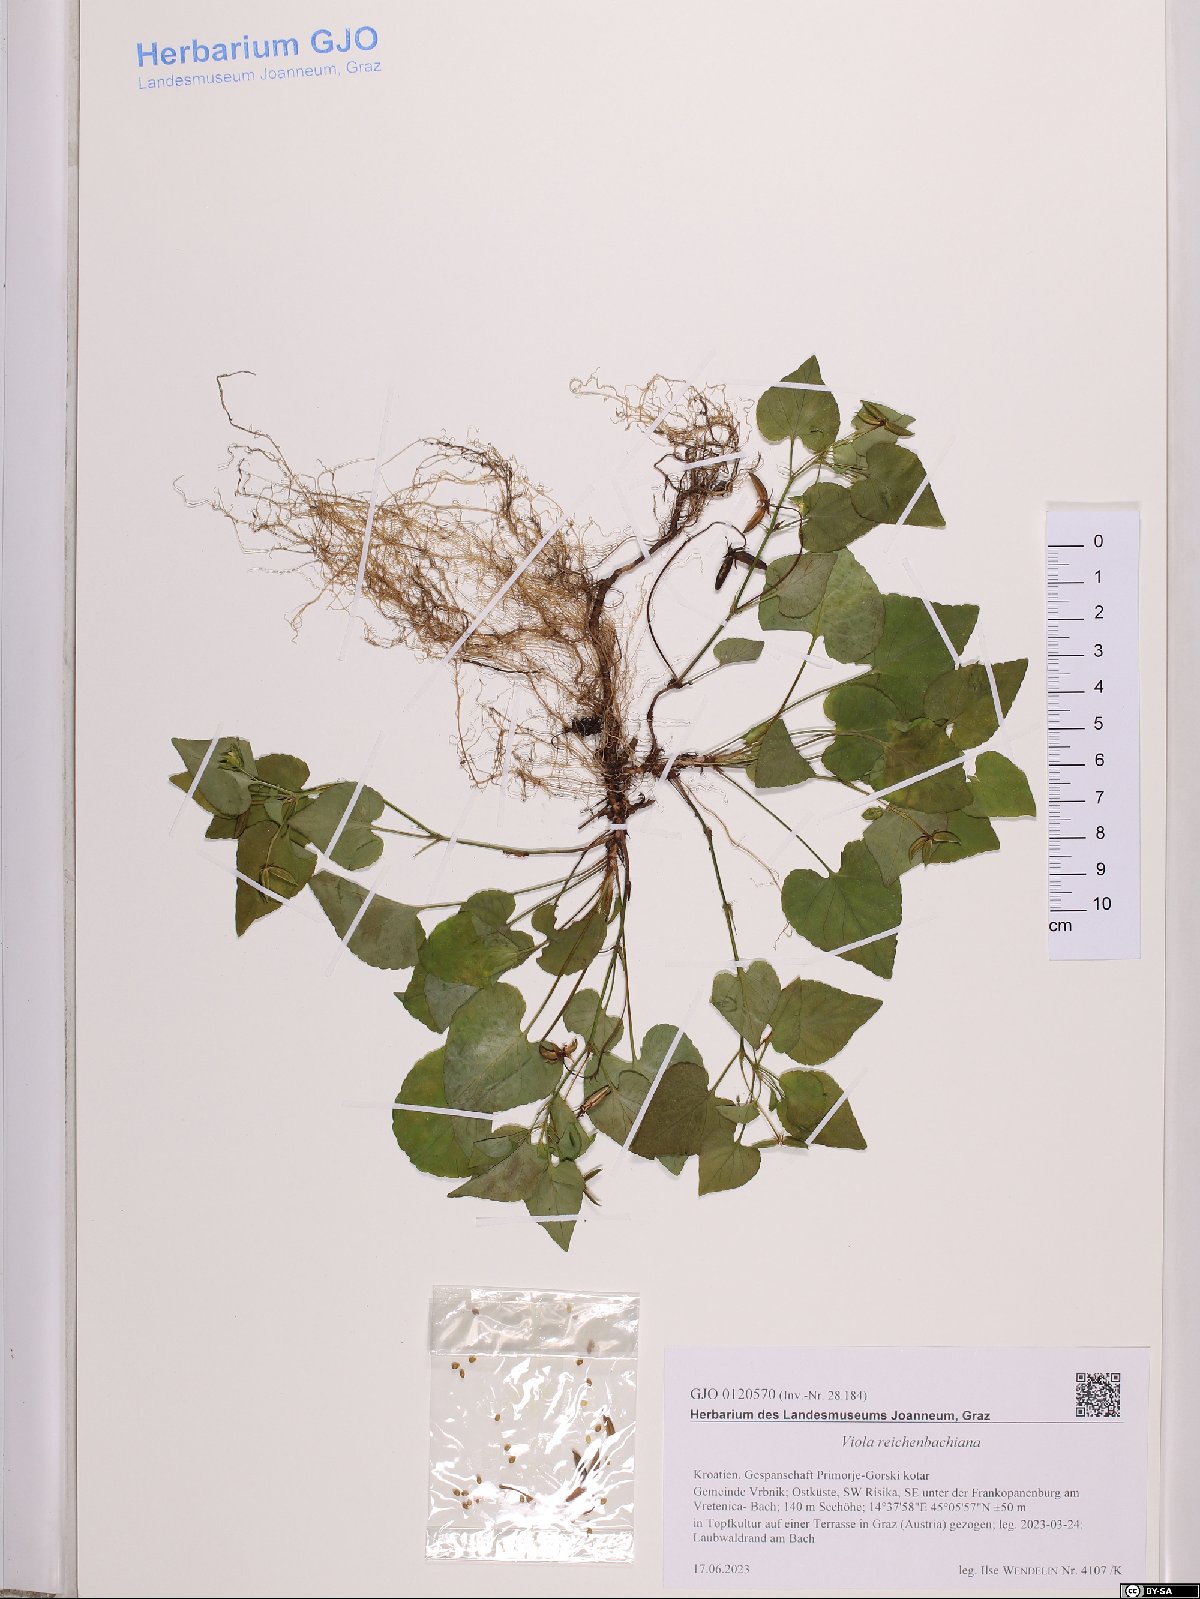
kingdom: Plantae
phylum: Tracheophyta
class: Magnoliopsida
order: Malpighiales
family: Violaceae
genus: Viola
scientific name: Viola reichenbachiana
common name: Early dog-violet
